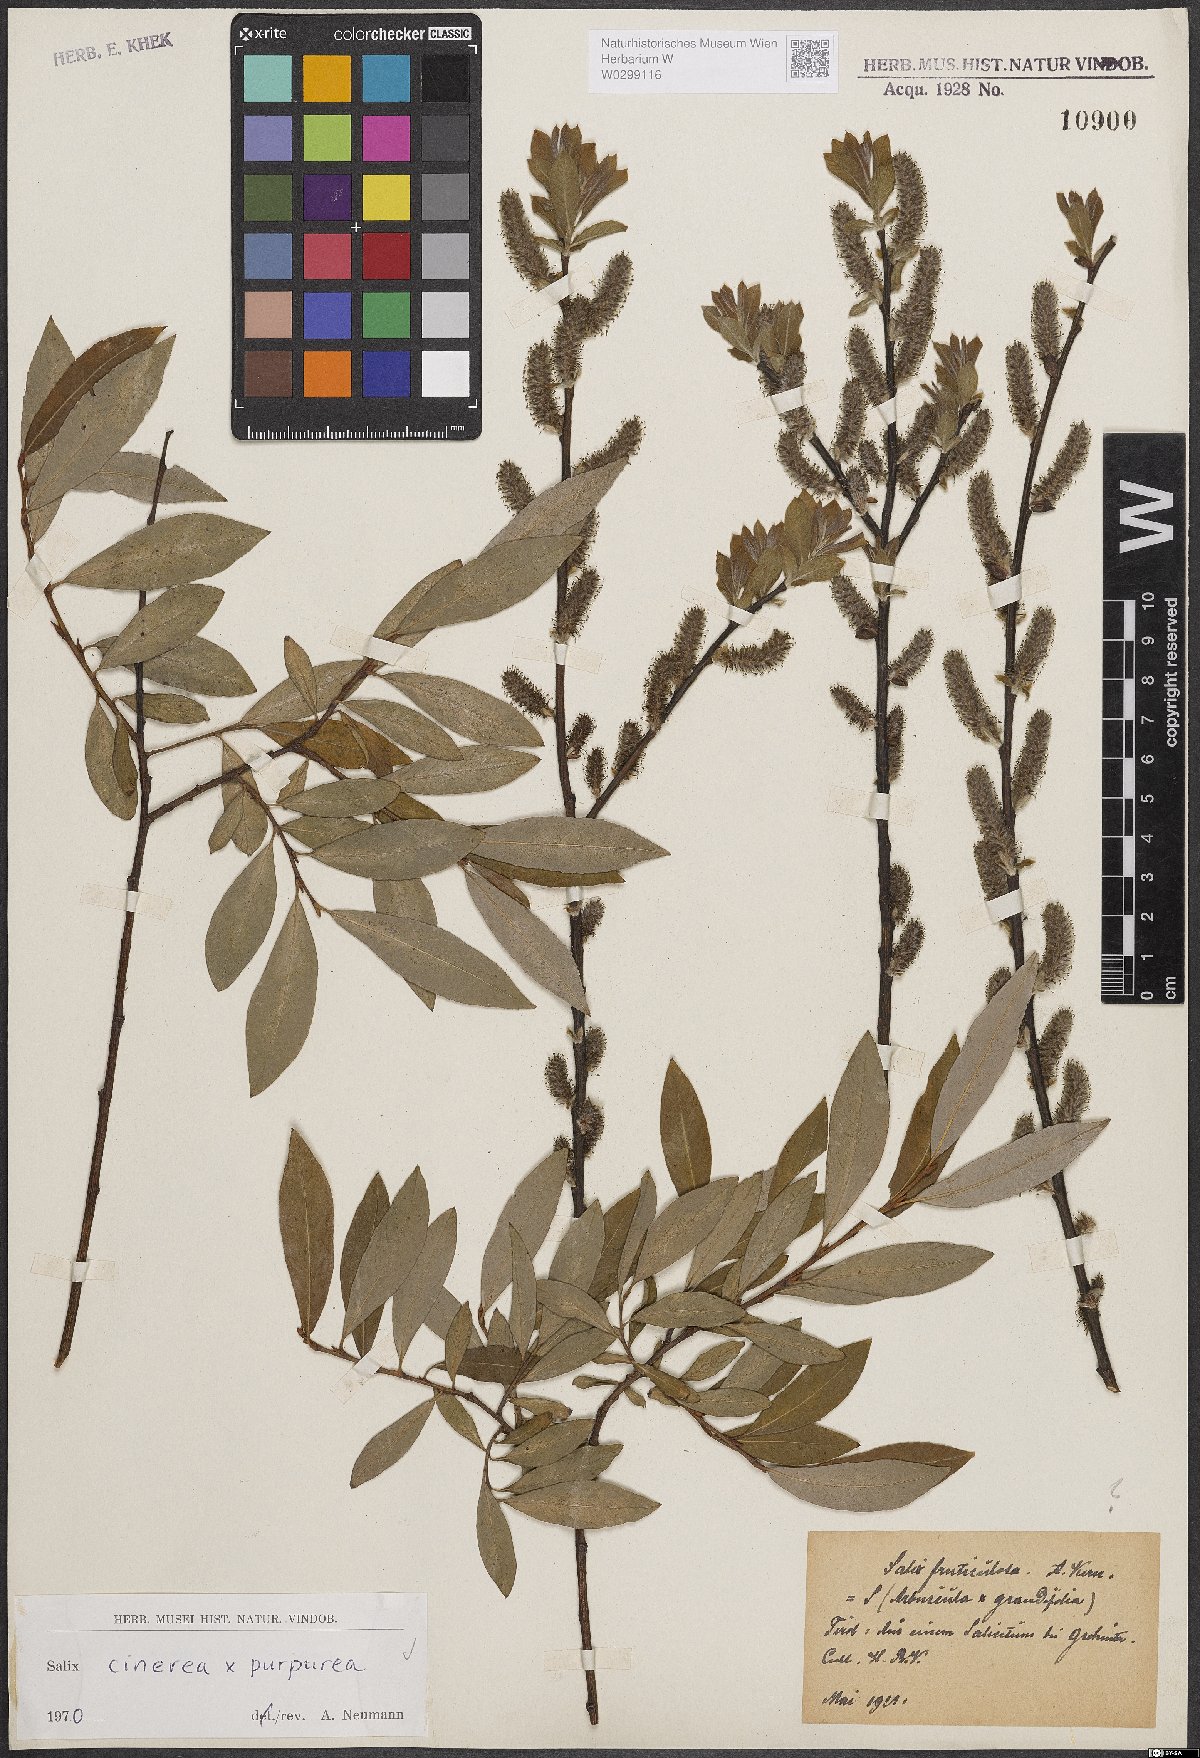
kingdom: Plantae
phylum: Tracheophyta
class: Magnoliopsida
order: Malpighiales
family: Salicaceae
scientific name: Salicaceae
